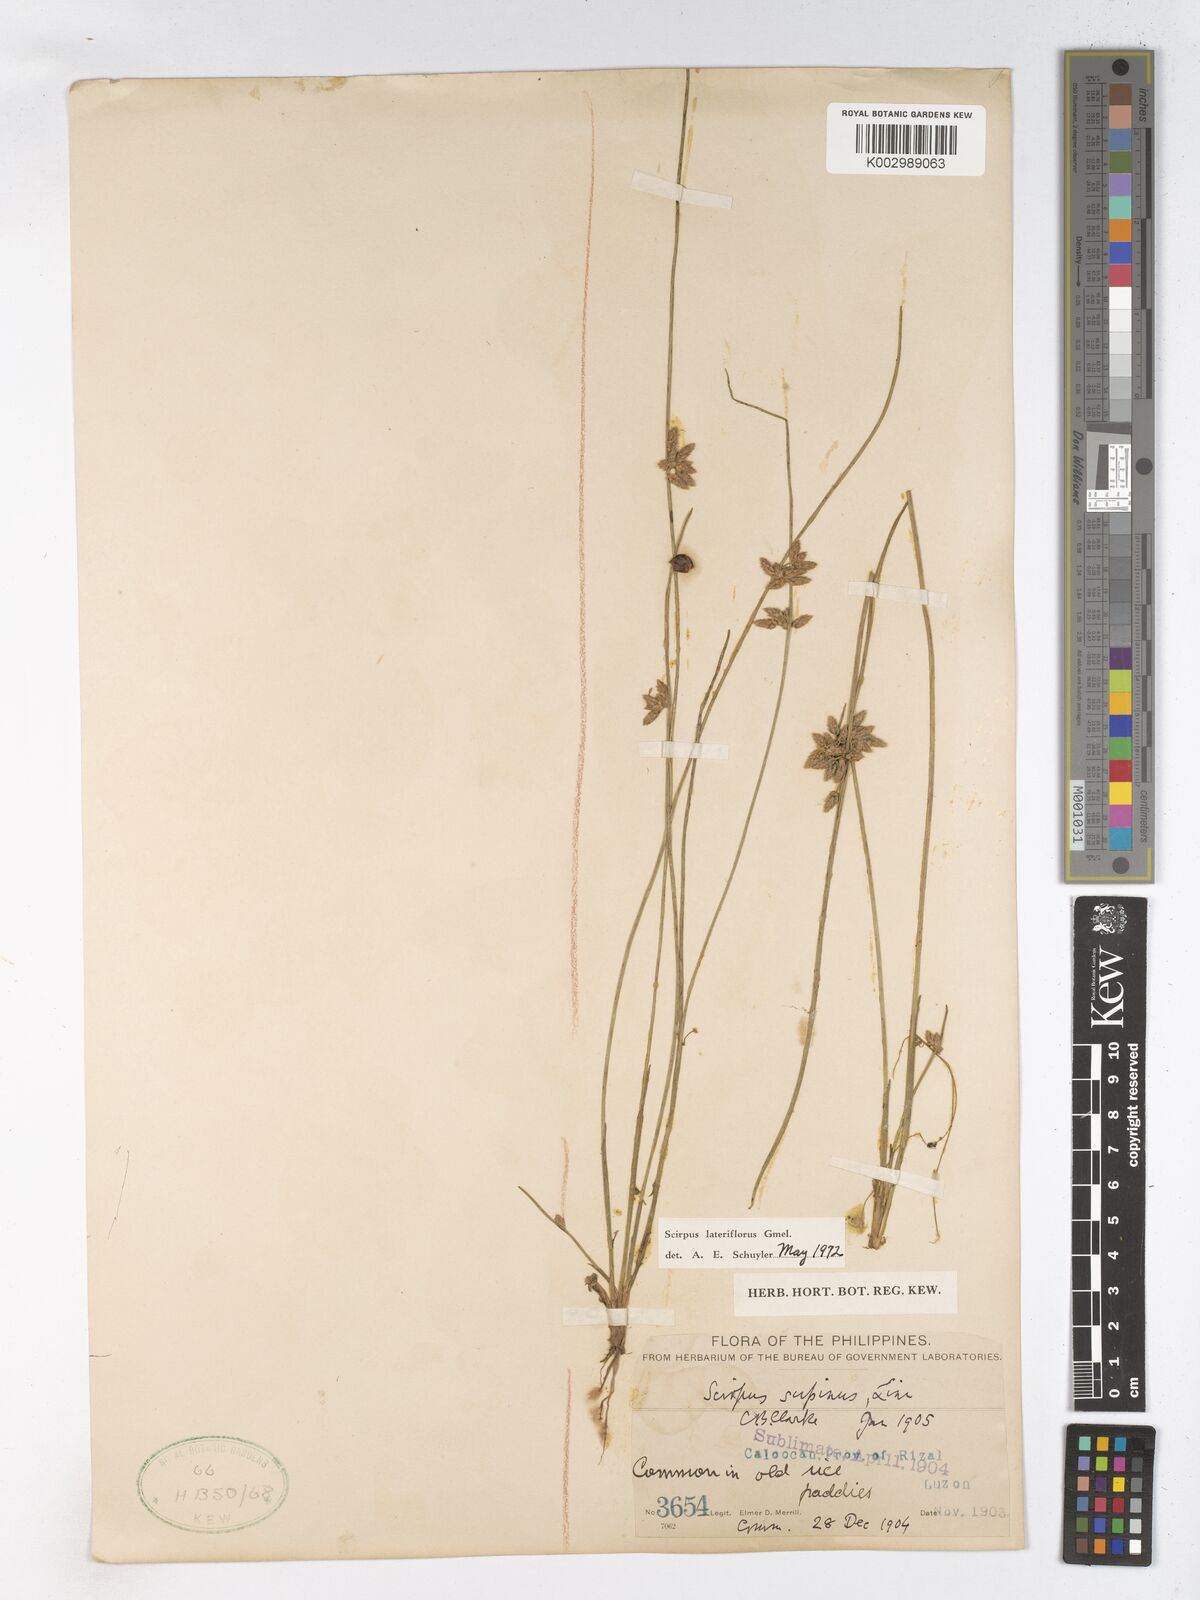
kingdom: Plantae
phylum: Tracheophyta
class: Liliopsida
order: Poales
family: Cyperaceae
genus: Schoenoplectiella
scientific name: Schoenoplectiella lateriflora
